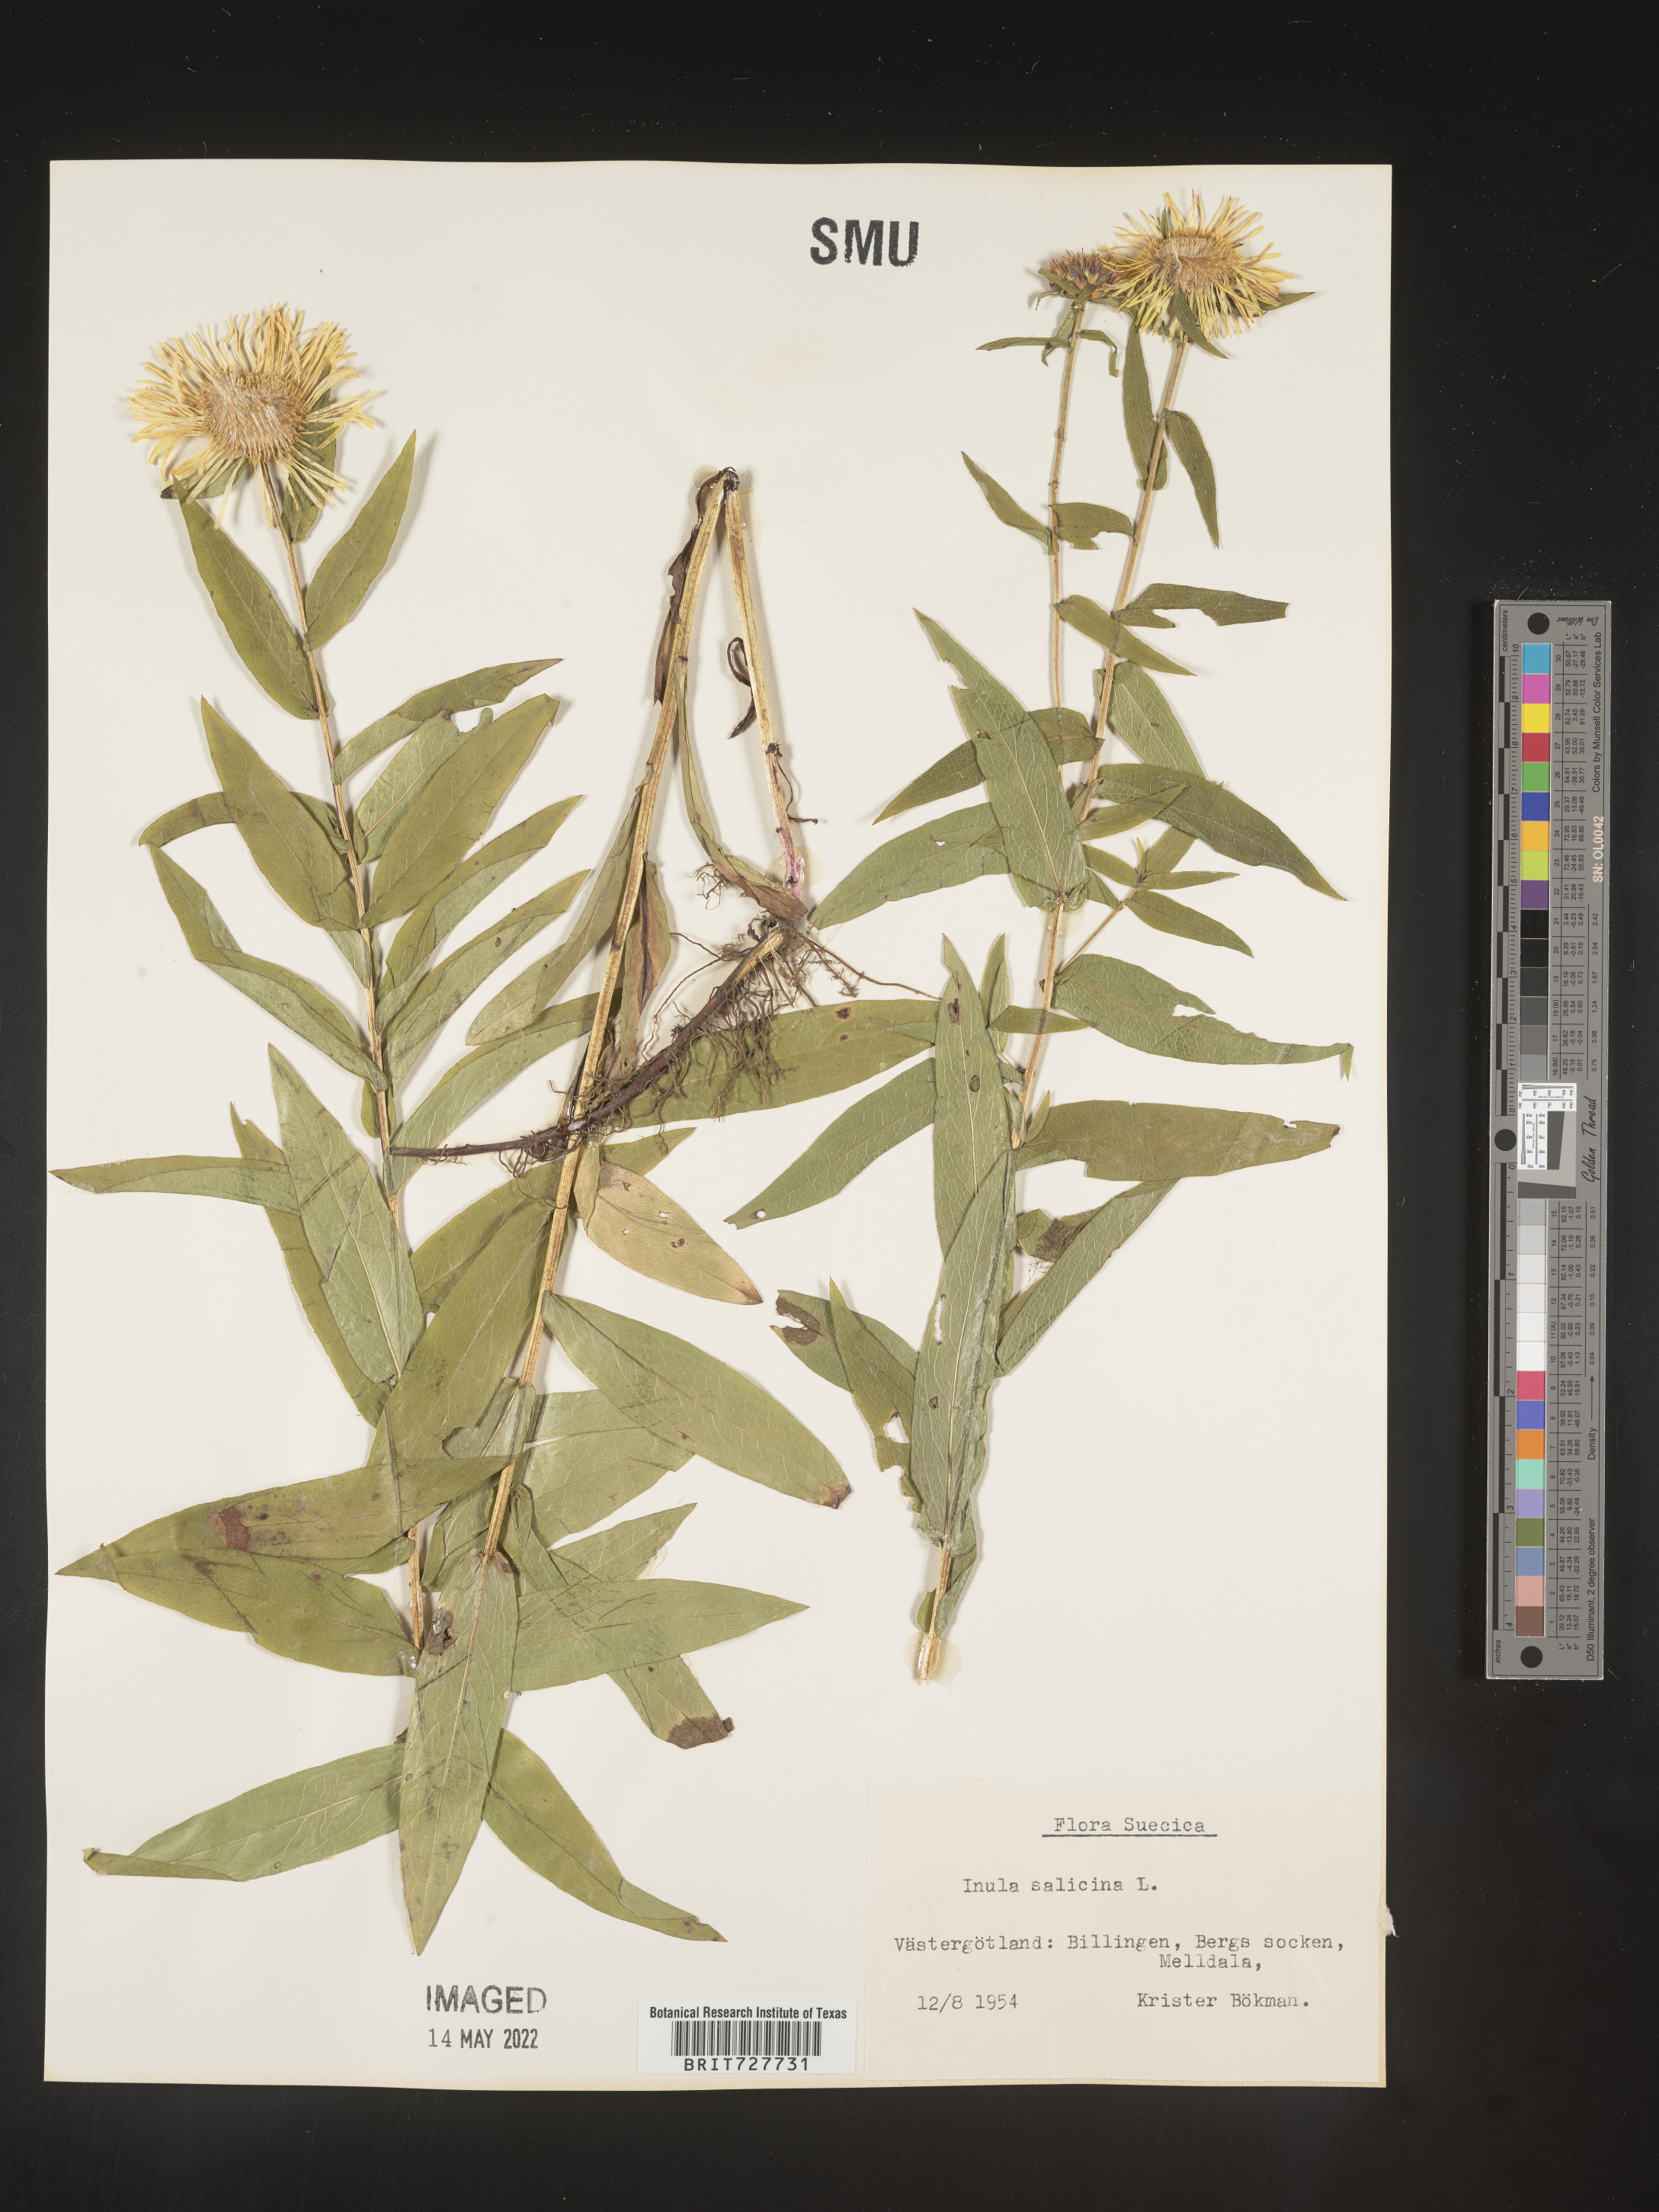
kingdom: Plantae
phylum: Tracheophyta
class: Magnoliopsida
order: Asterales
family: Asteraceae
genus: Inula
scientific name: Inula
